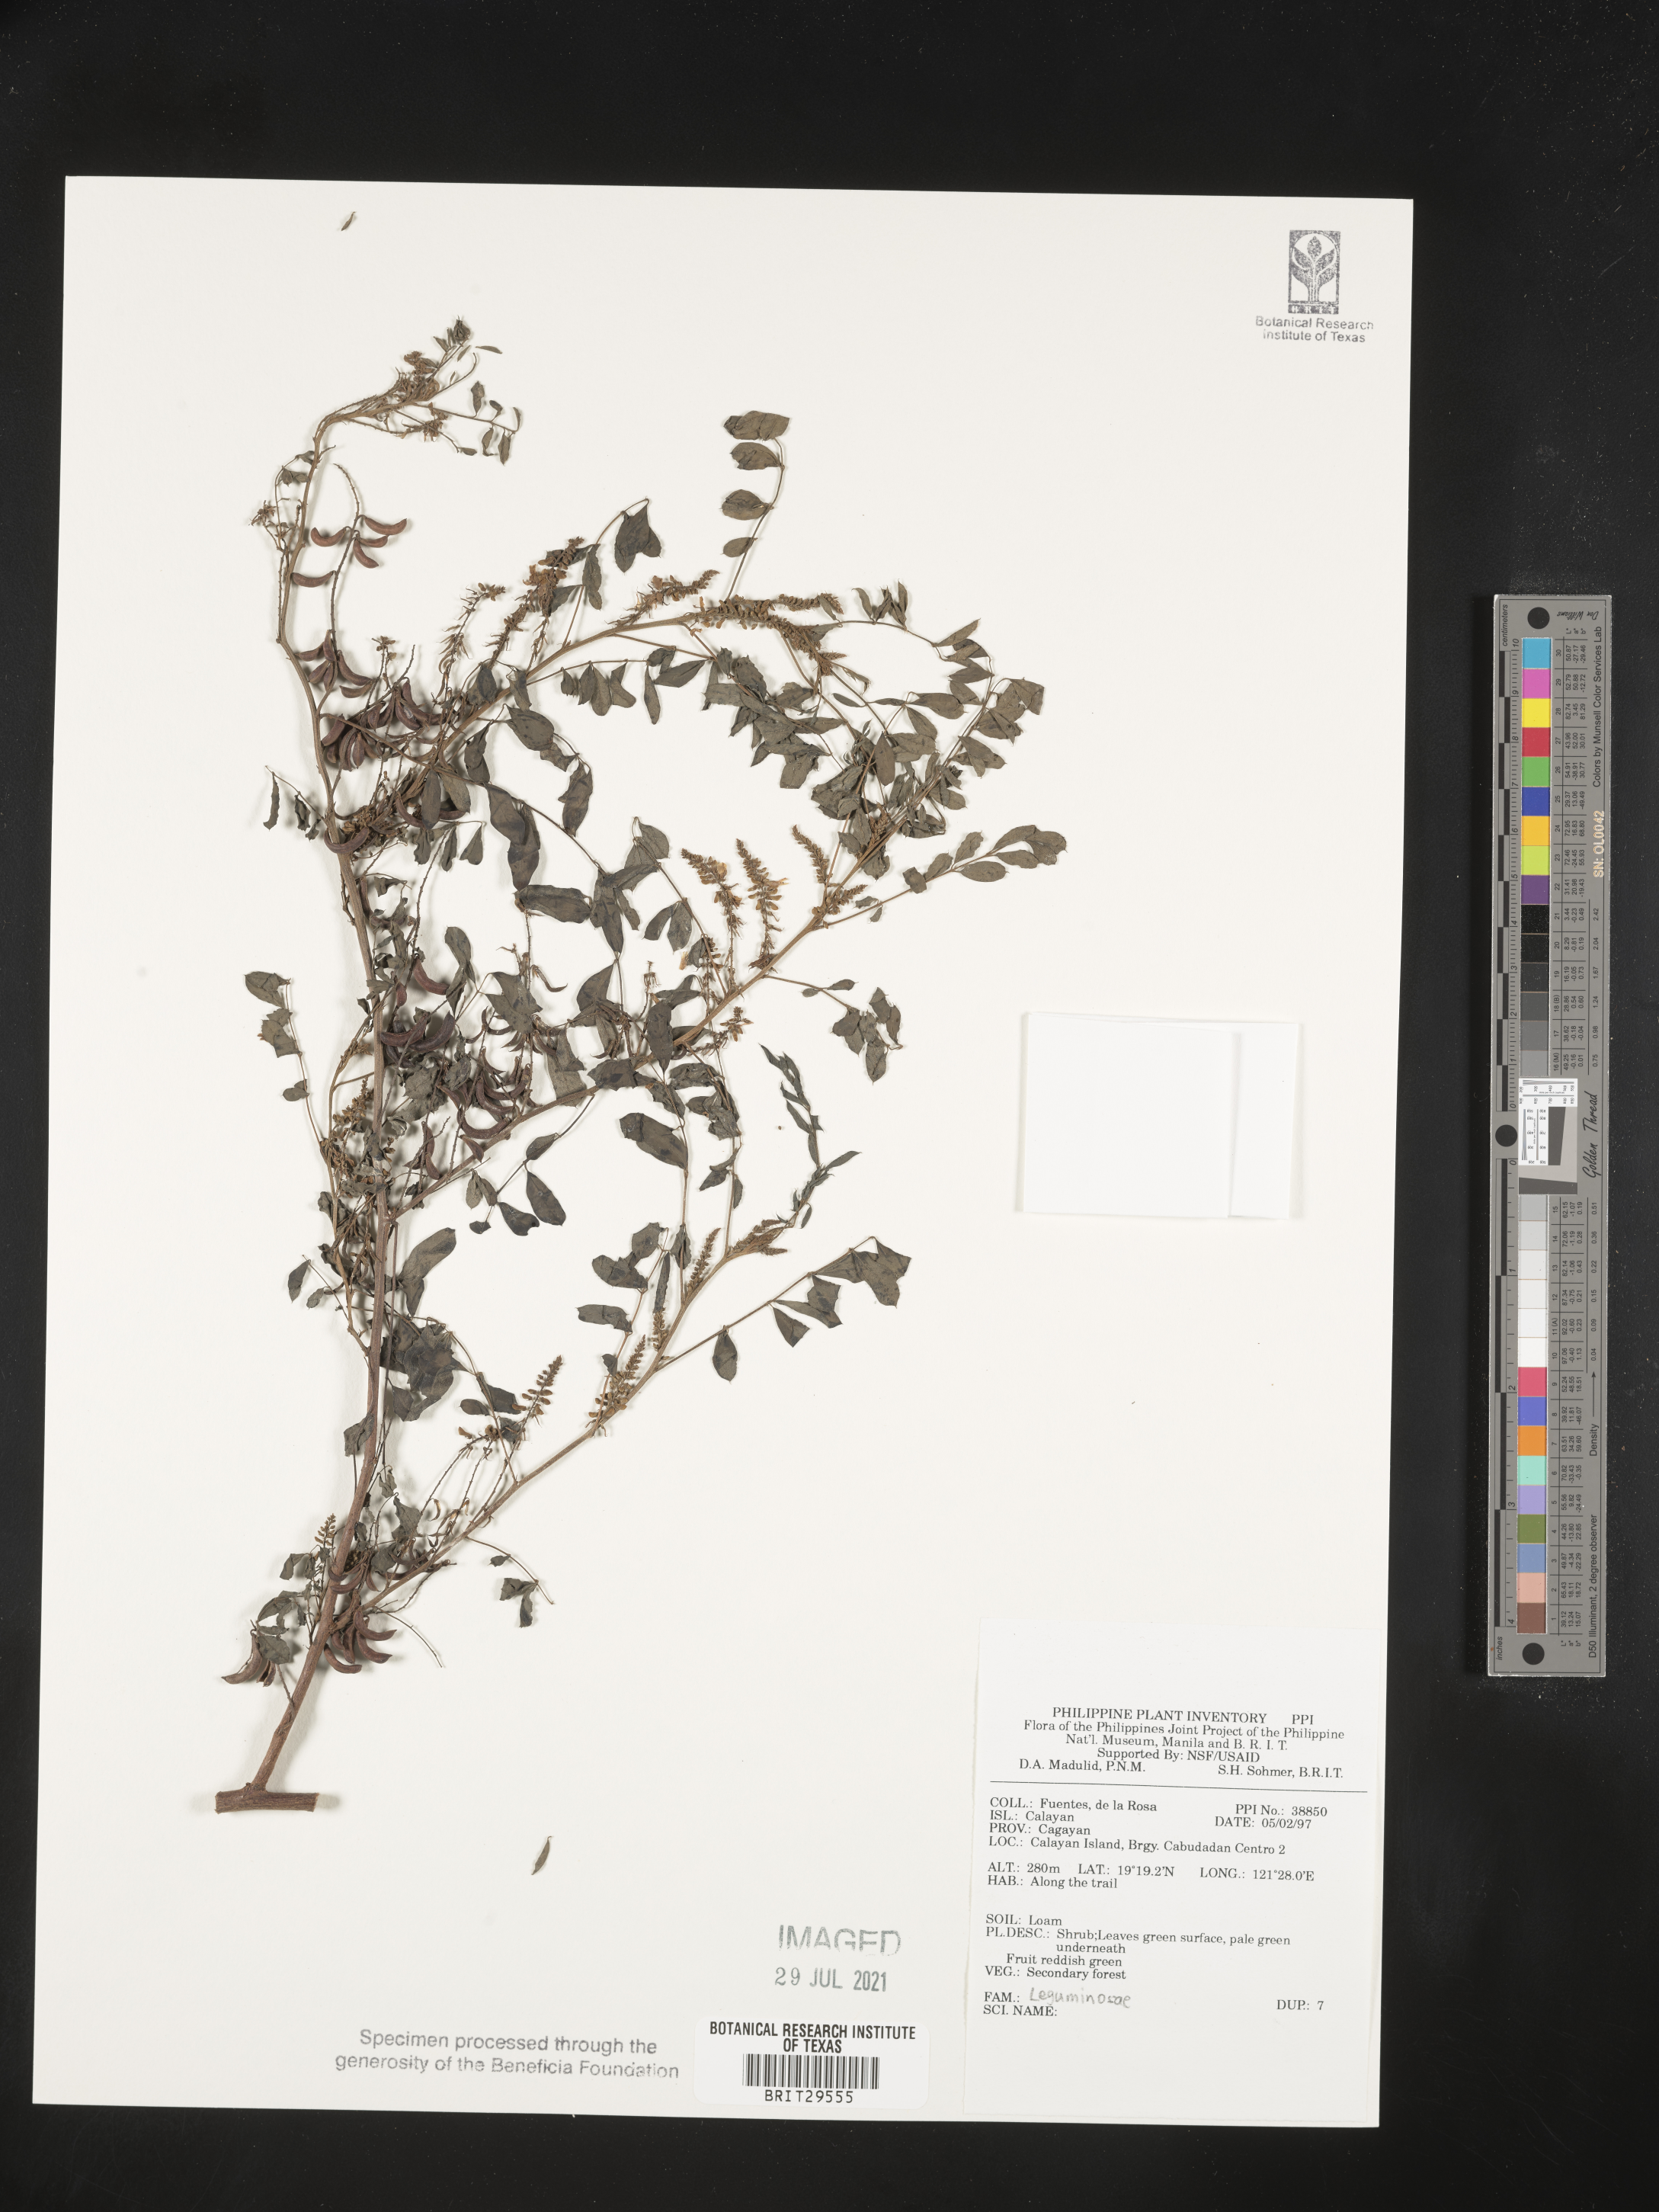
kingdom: Plantae
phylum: Tracheophyta
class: Magnoliopsida
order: Fabales
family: Fabaceae
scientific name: Fabaceae
